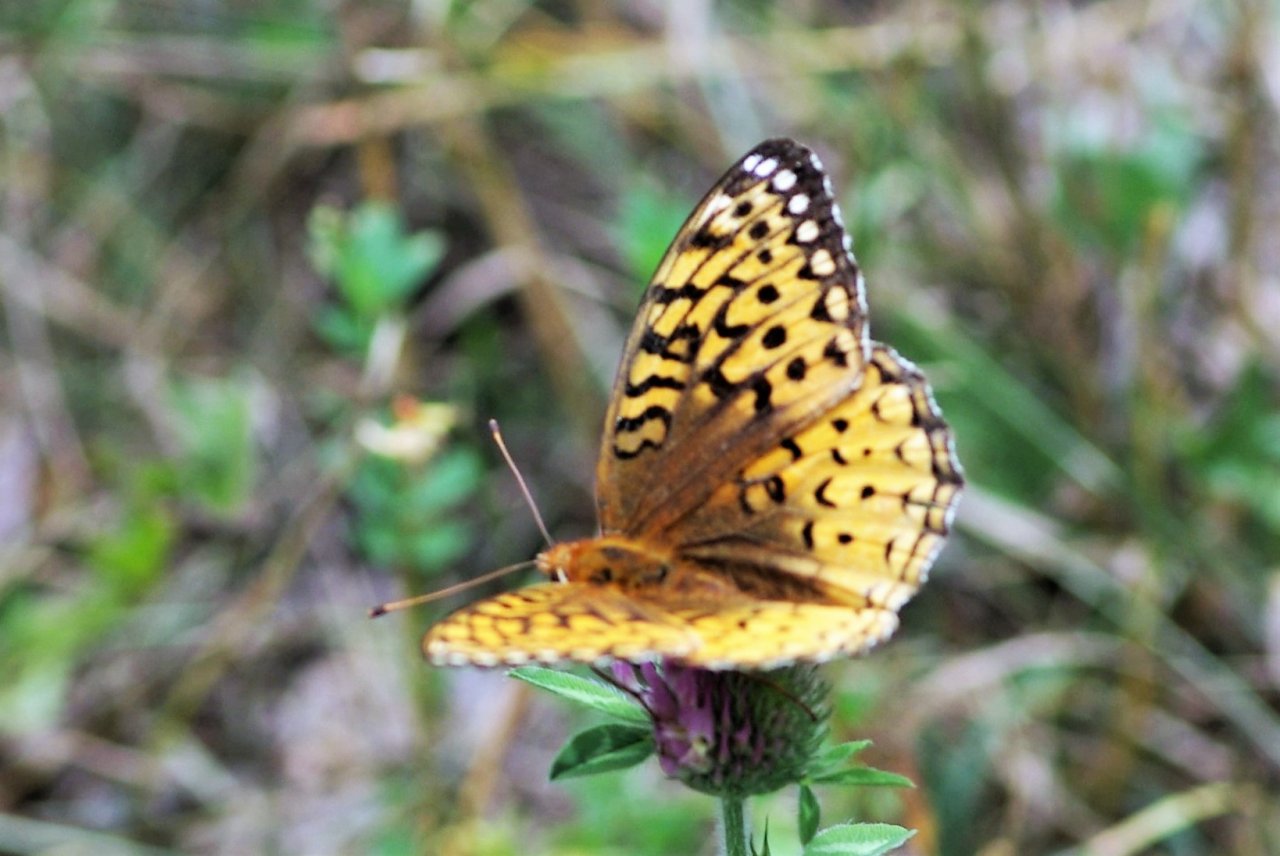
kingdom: Animalia
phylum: Arthropoda
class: Insecta
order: Lepidoptera
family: Nymphalidae
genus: Speyeria
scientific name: Speyeria cybele
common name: Great Spangled Fritillary
